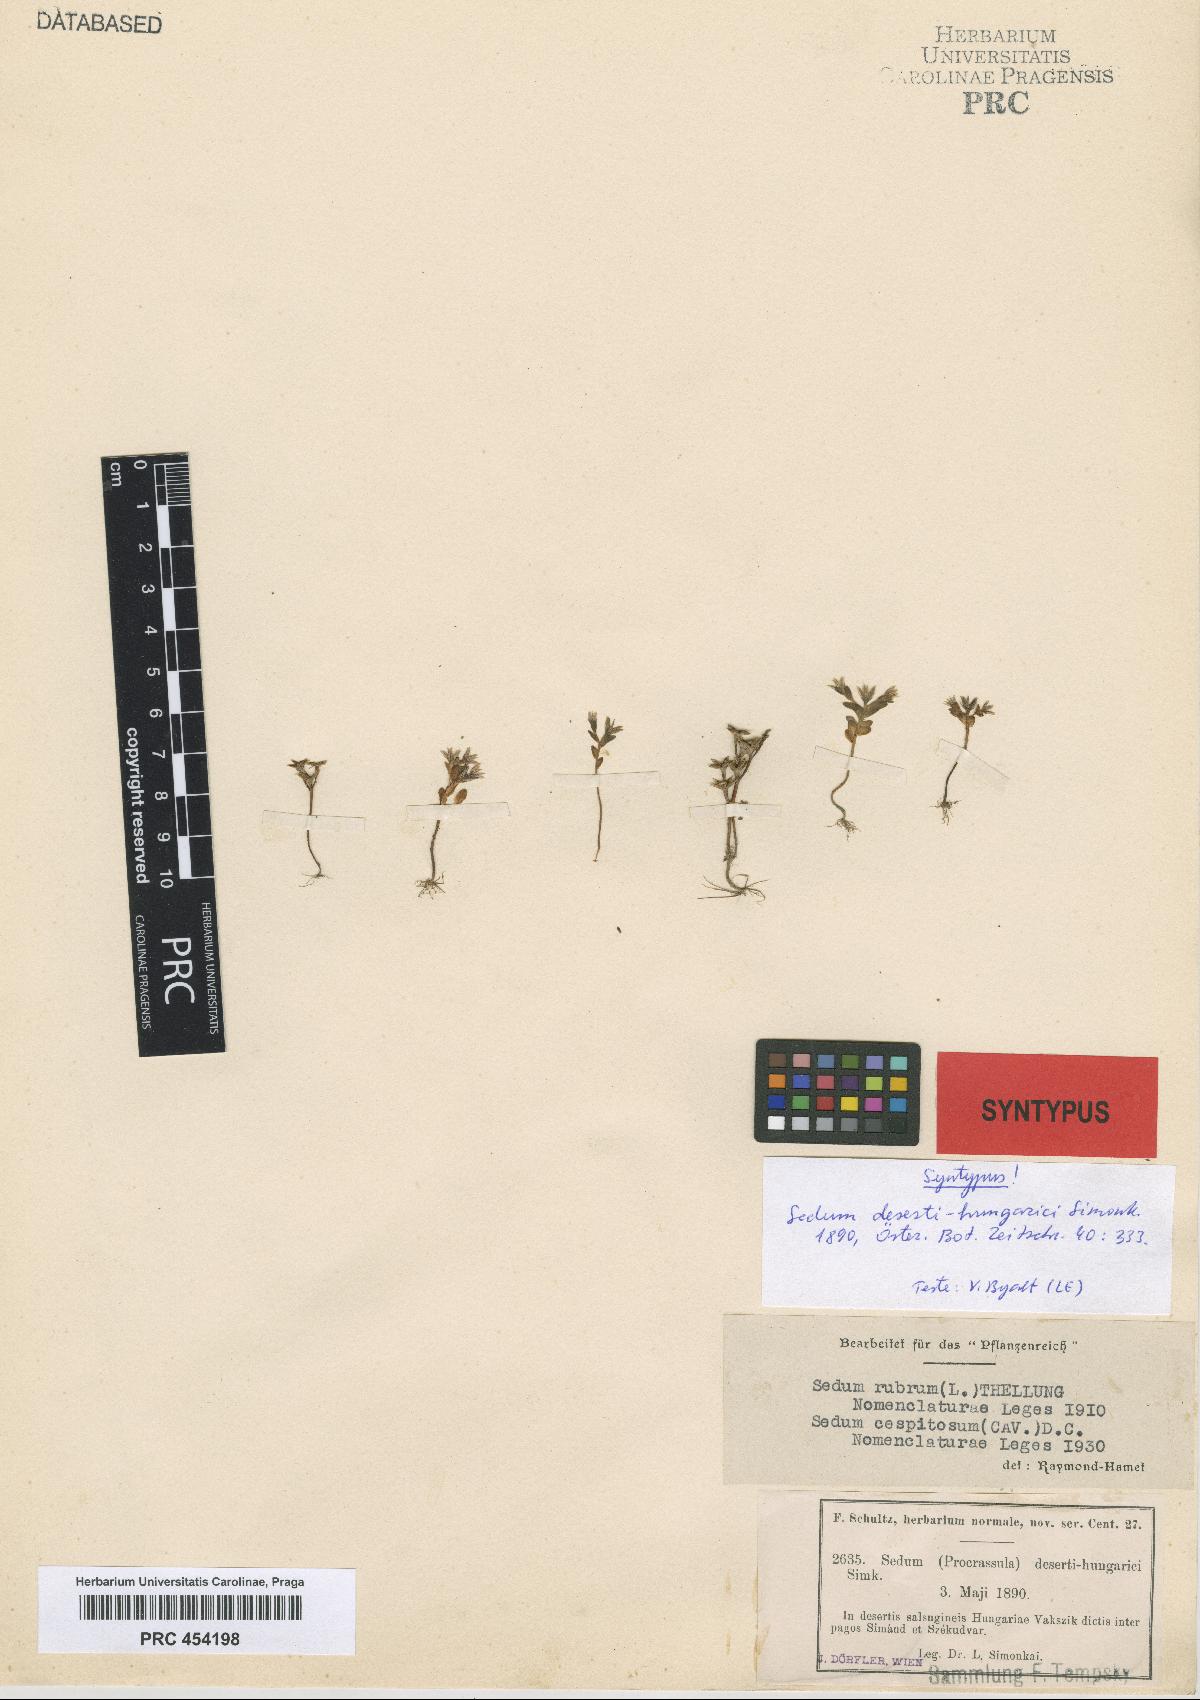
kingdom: Plantae
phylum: Tracheophyta
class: Magnoliopsida
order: Saxifragales
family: Crassulaceae
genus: Sedum
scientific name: Sedum cespitosum
